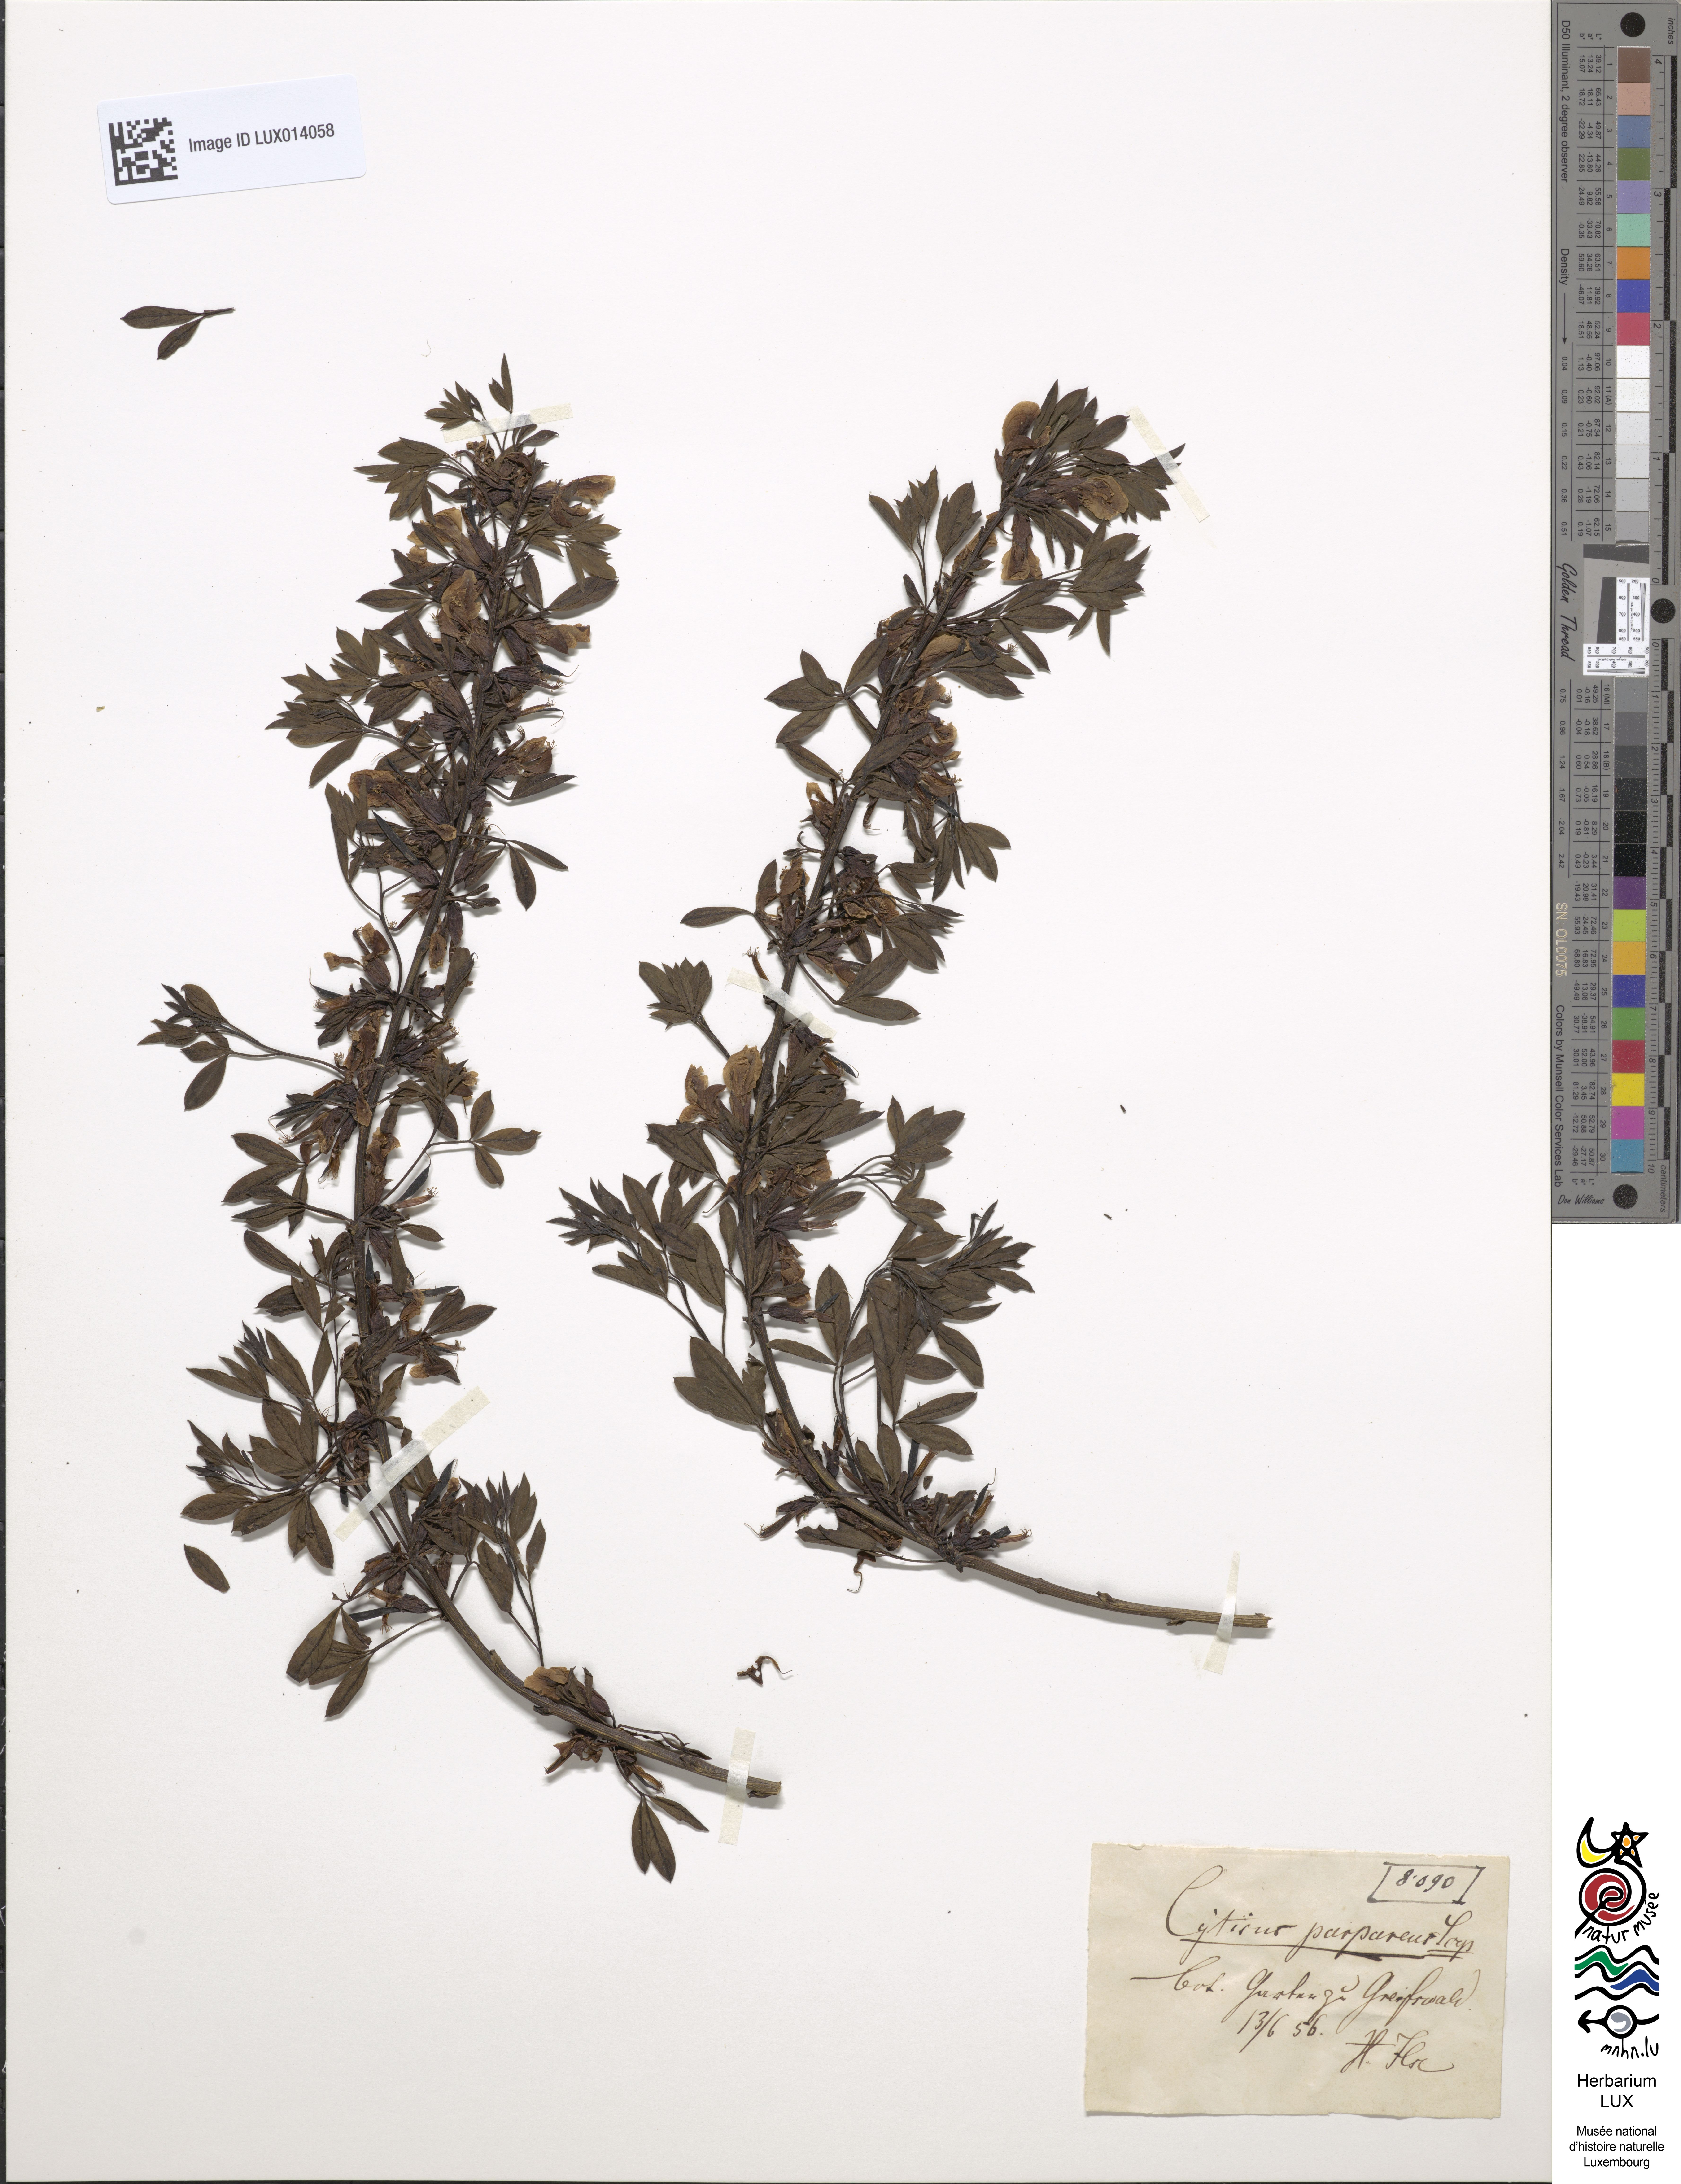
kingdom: Plantae
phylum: Tracheophyta
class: Magnoliopsida
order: Fabales
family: Fabaceae
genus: Chamaecytisus
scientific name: Chamaecytisus purpureus
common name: Purple broom
